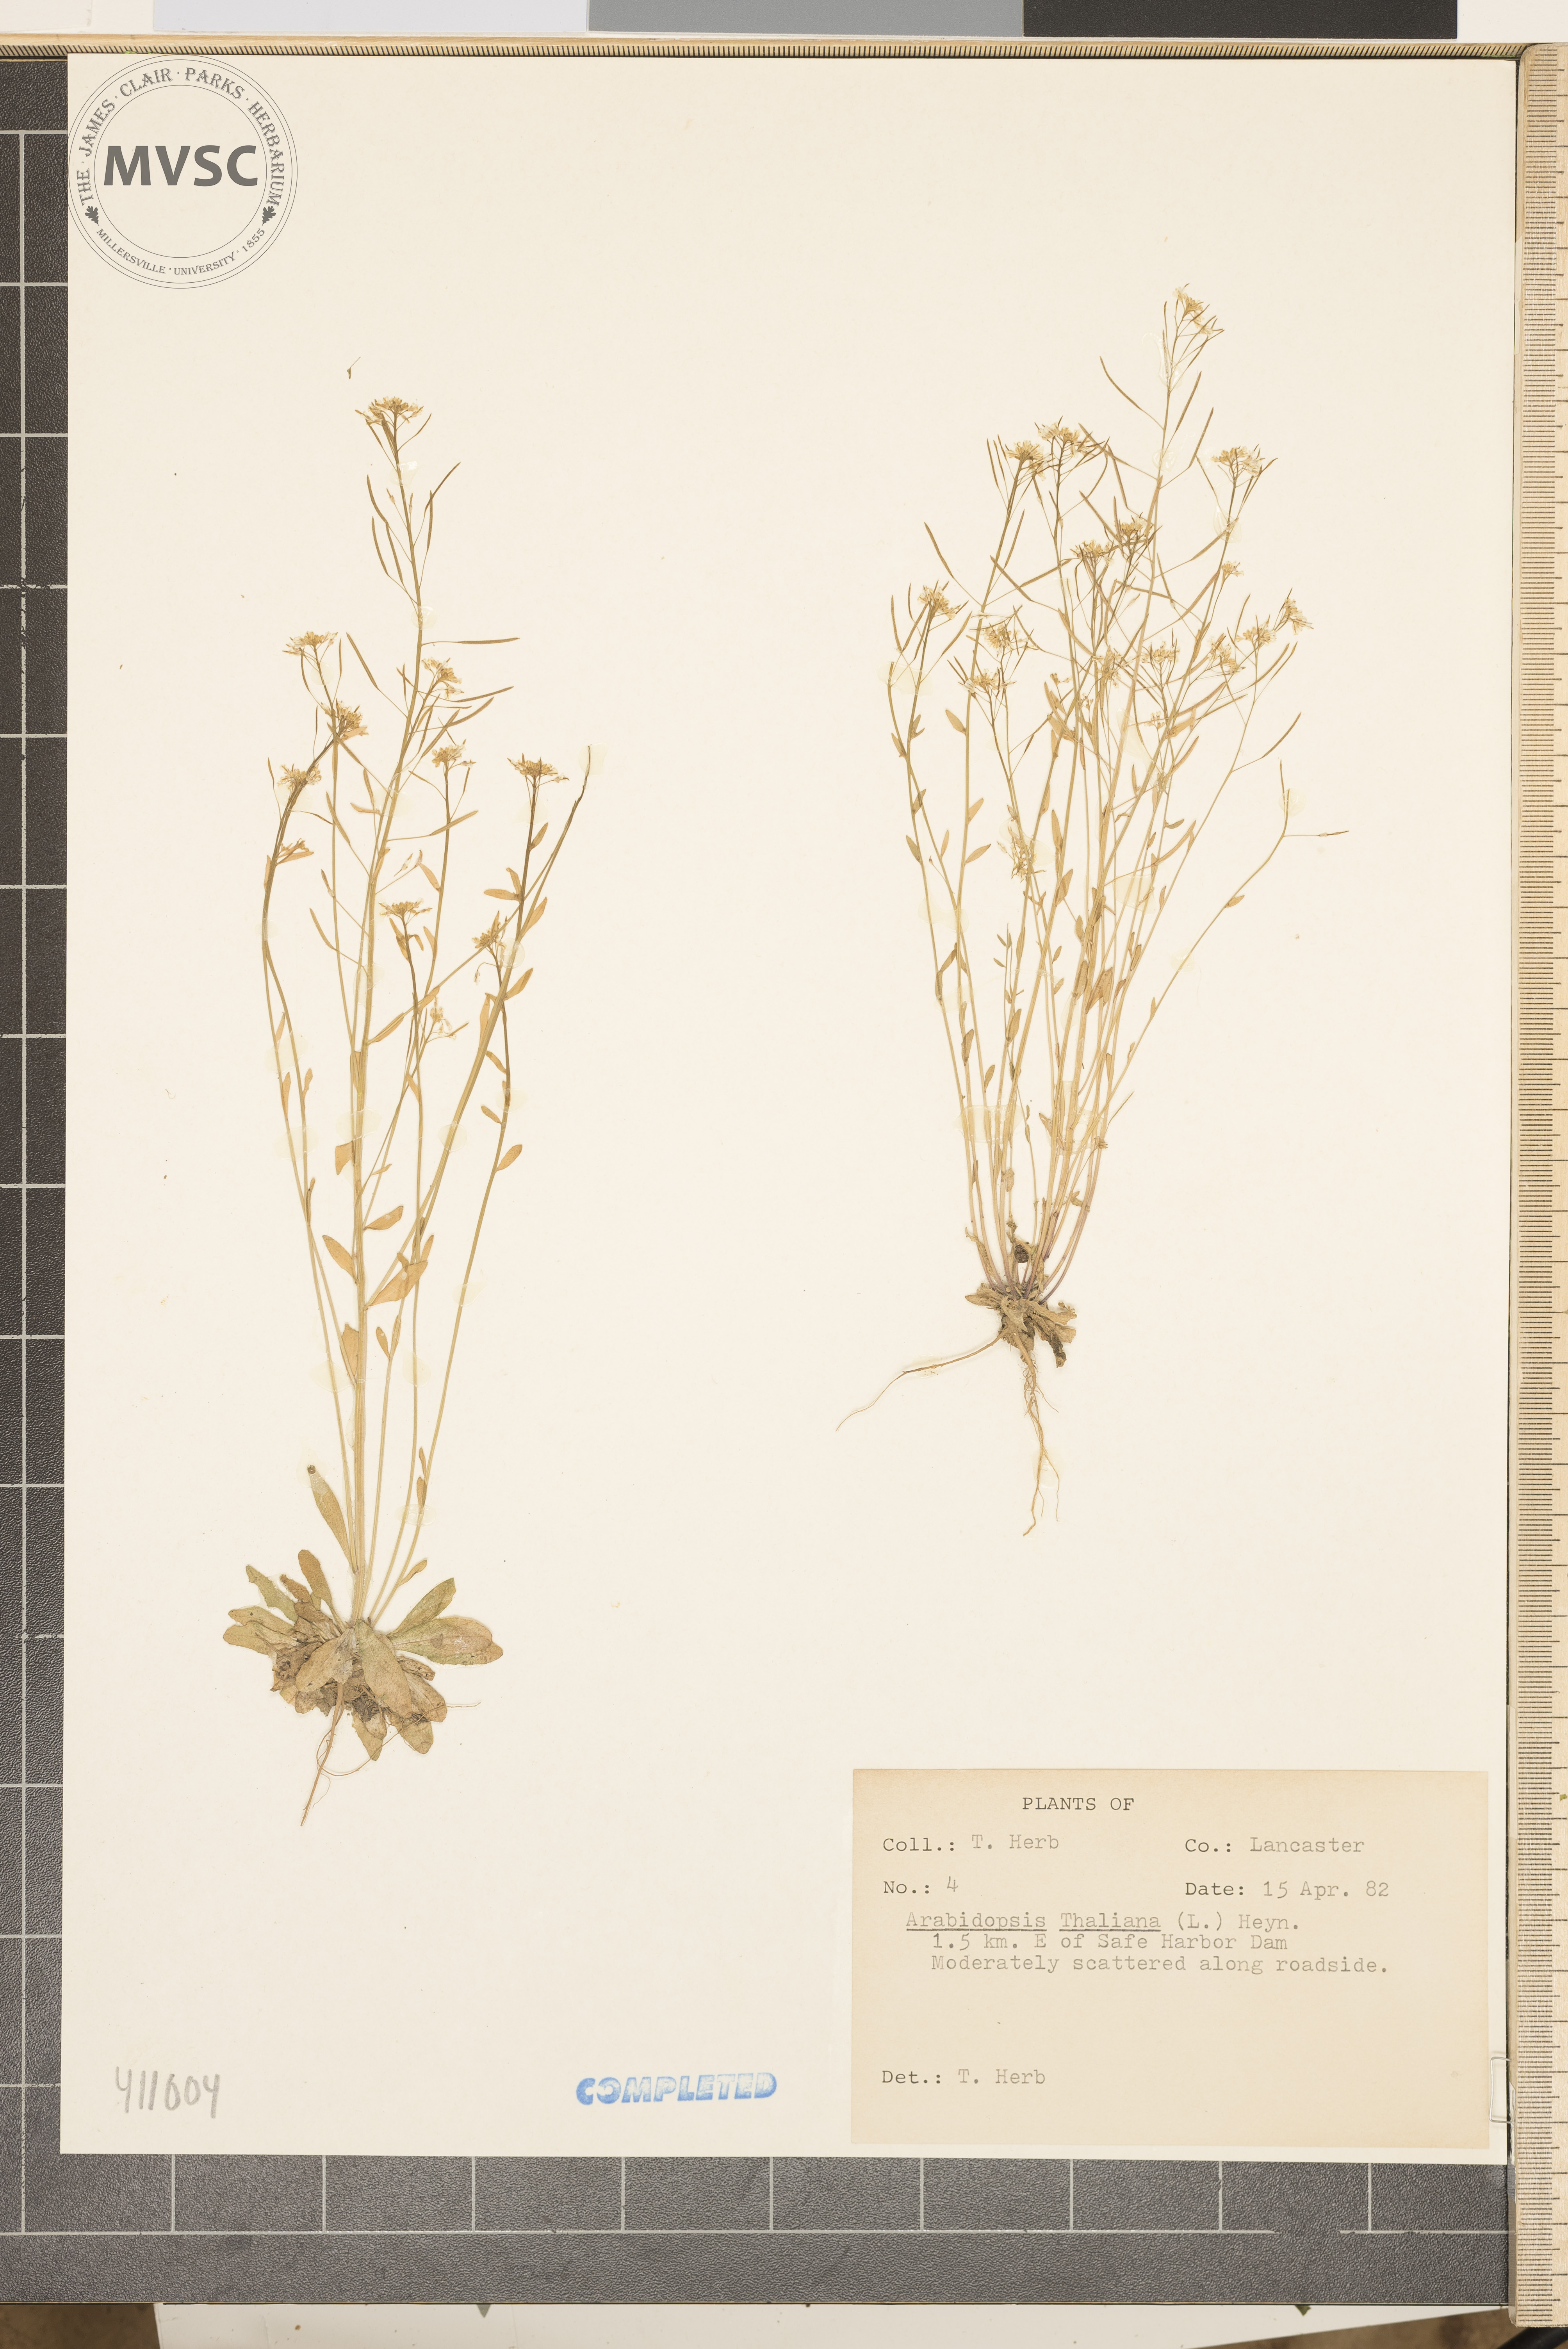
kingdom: Plantae
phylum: Tracheophyta
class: Magnoliopsida
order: Brassicales
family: Brassicaceae
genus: Arabidopsis
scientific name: Arabidopsis thaliana
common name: Thale cress
